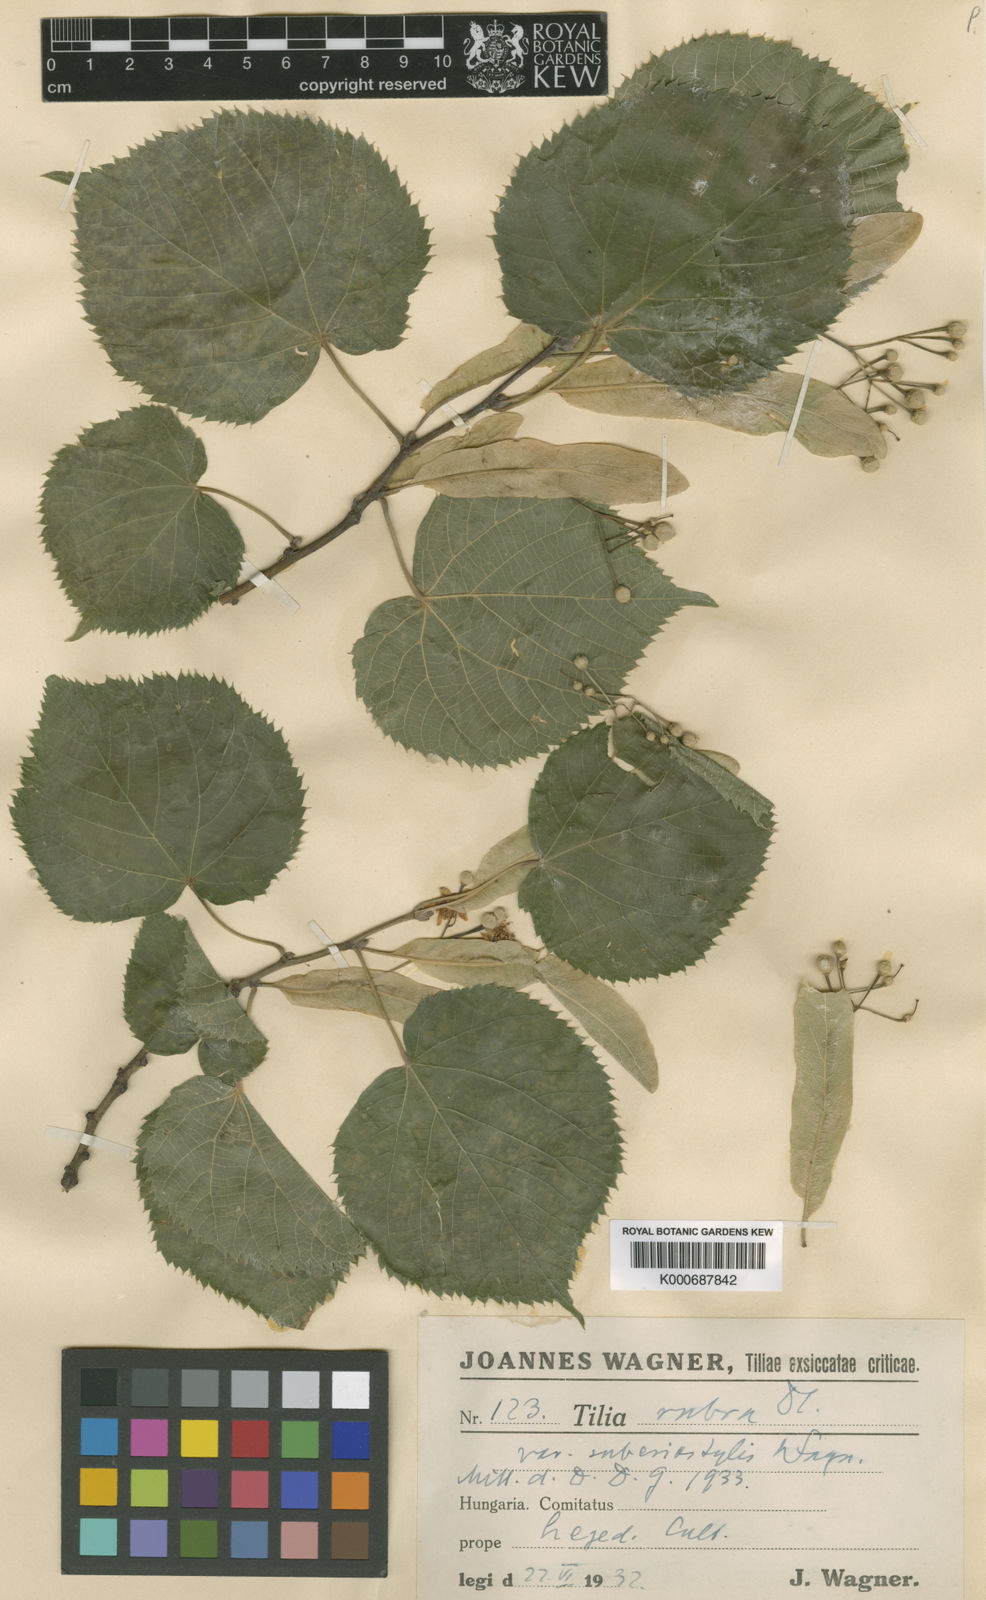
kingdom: Plantae
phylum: Tracheophyta
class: Magnoliopsida
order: Malvales
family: Malvaceae
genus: Tilia
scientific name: Tilia platyphyllos
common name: Large-leaved lime
